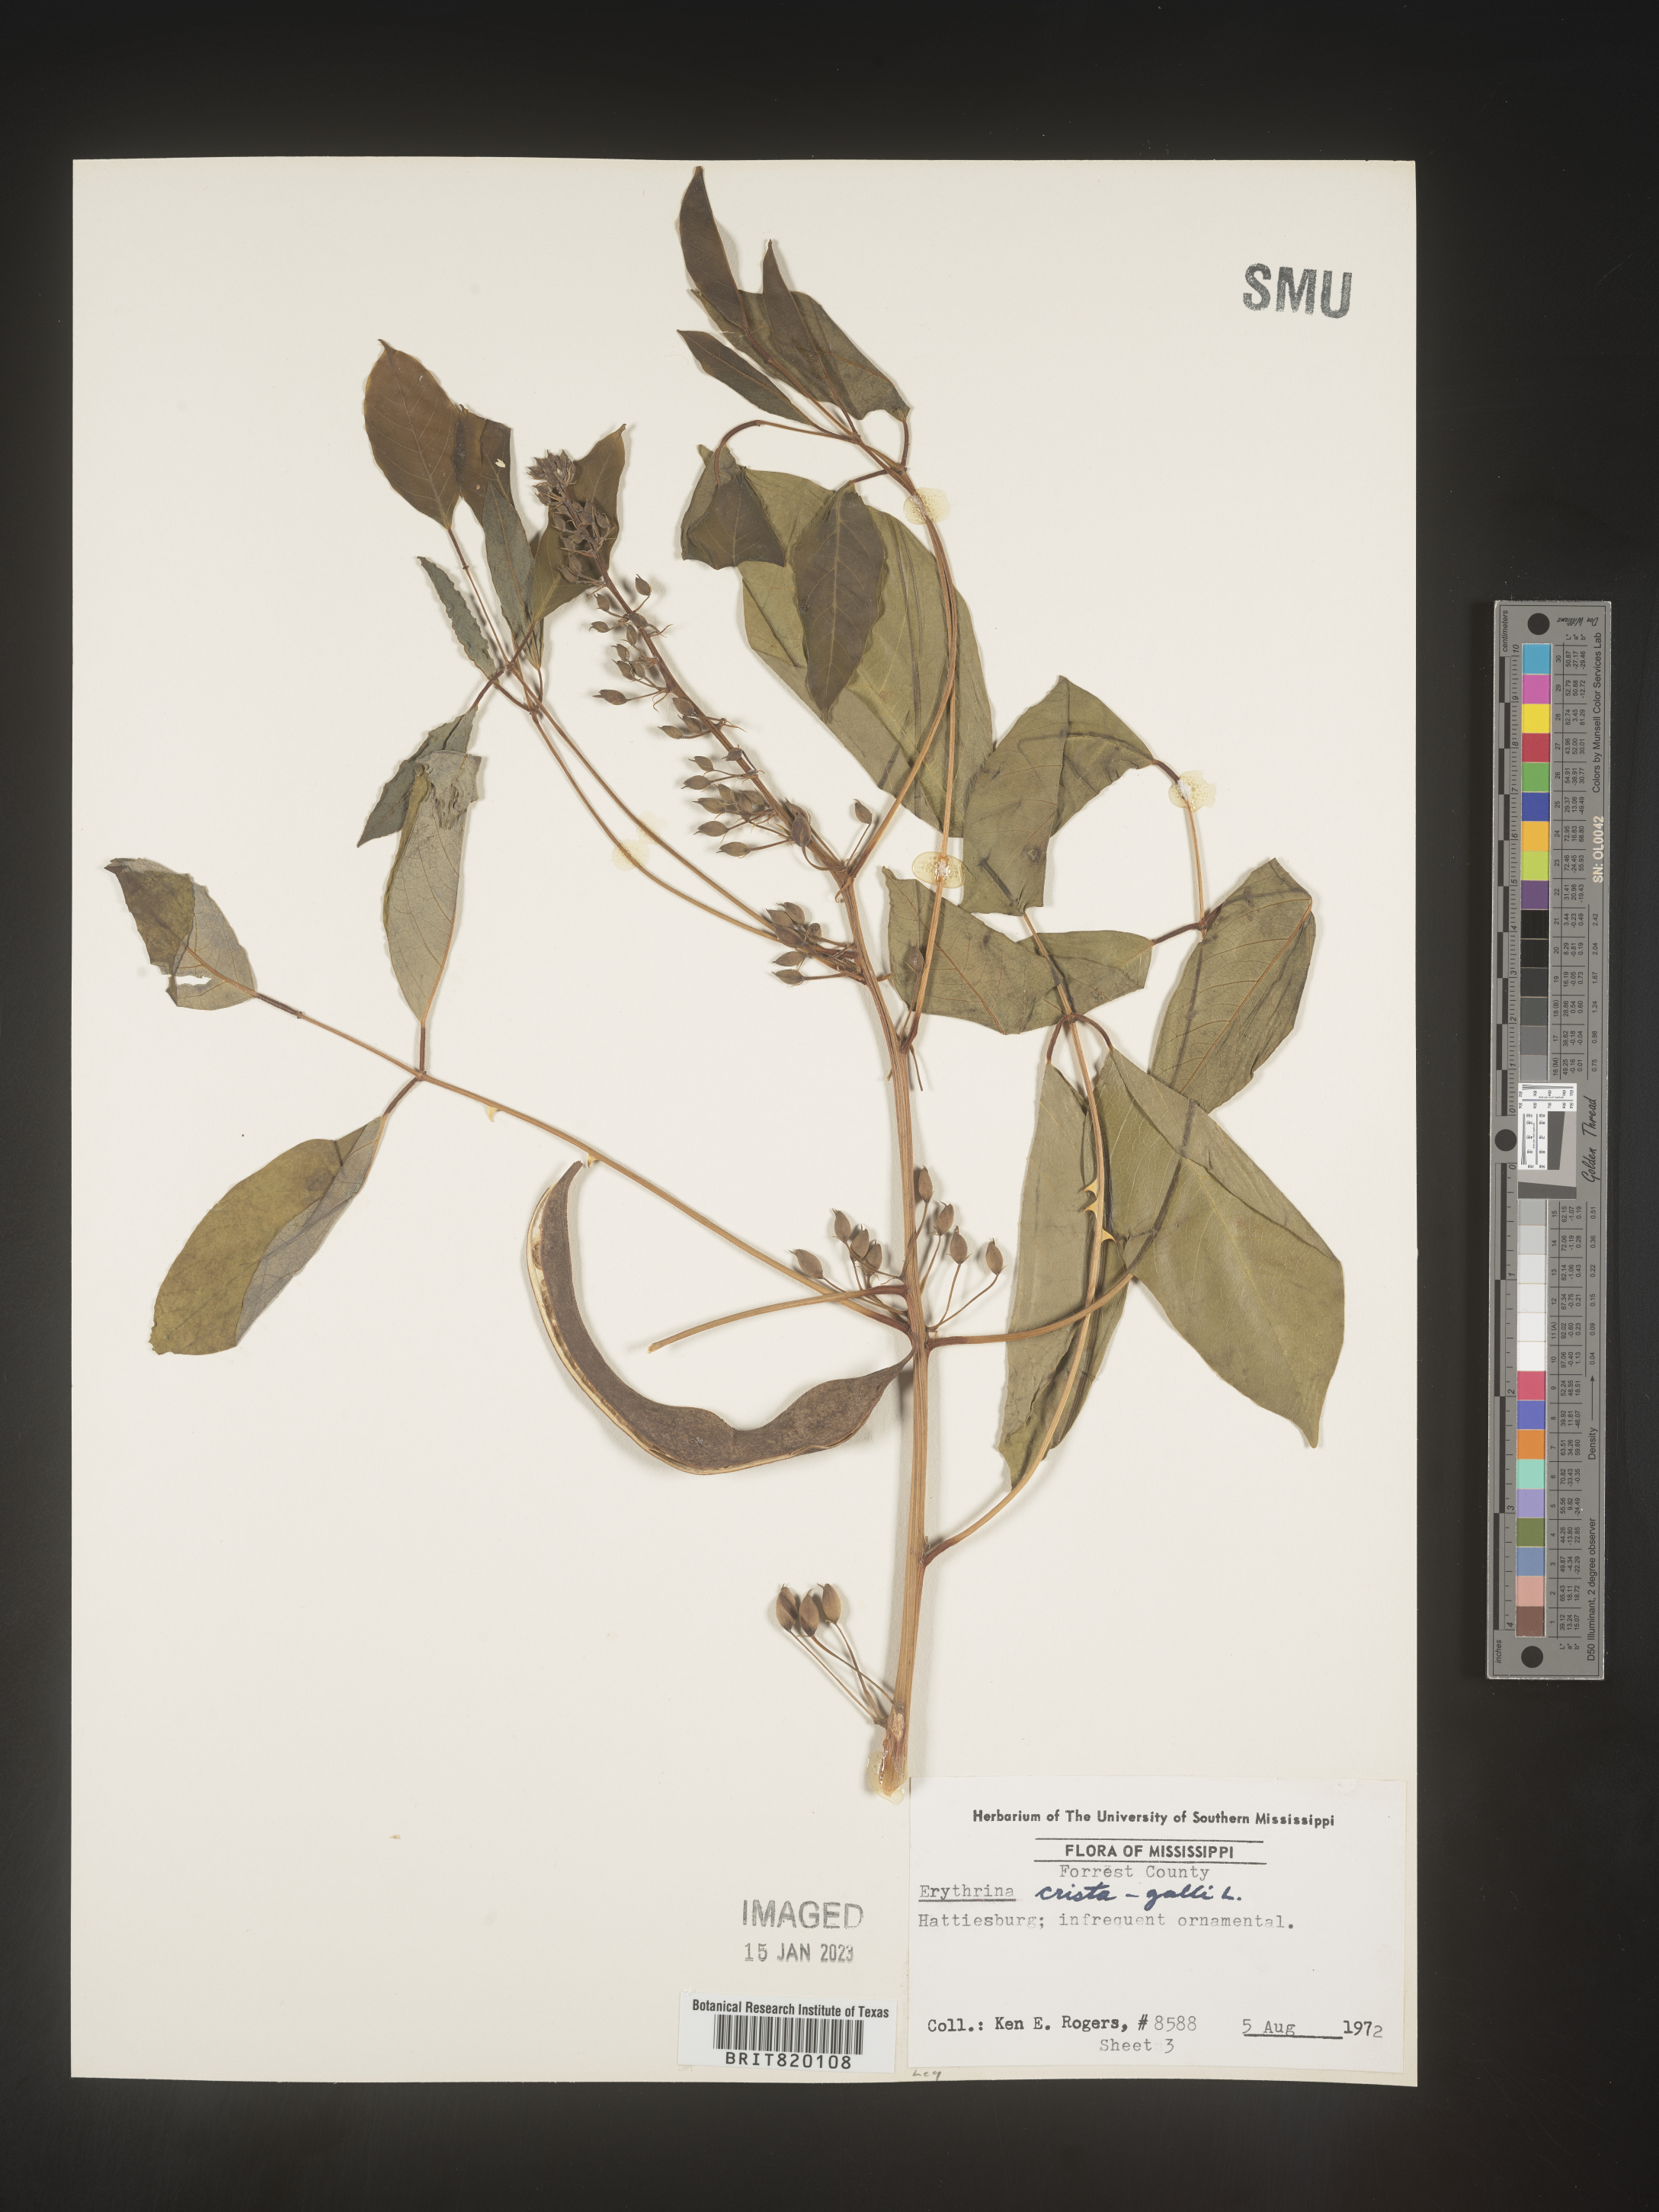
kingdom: Plantae
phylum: Tracheophyta
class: Magnoliopsida
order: Fabales
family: Fabaceae
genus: Erythrina
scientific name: Erythrina
